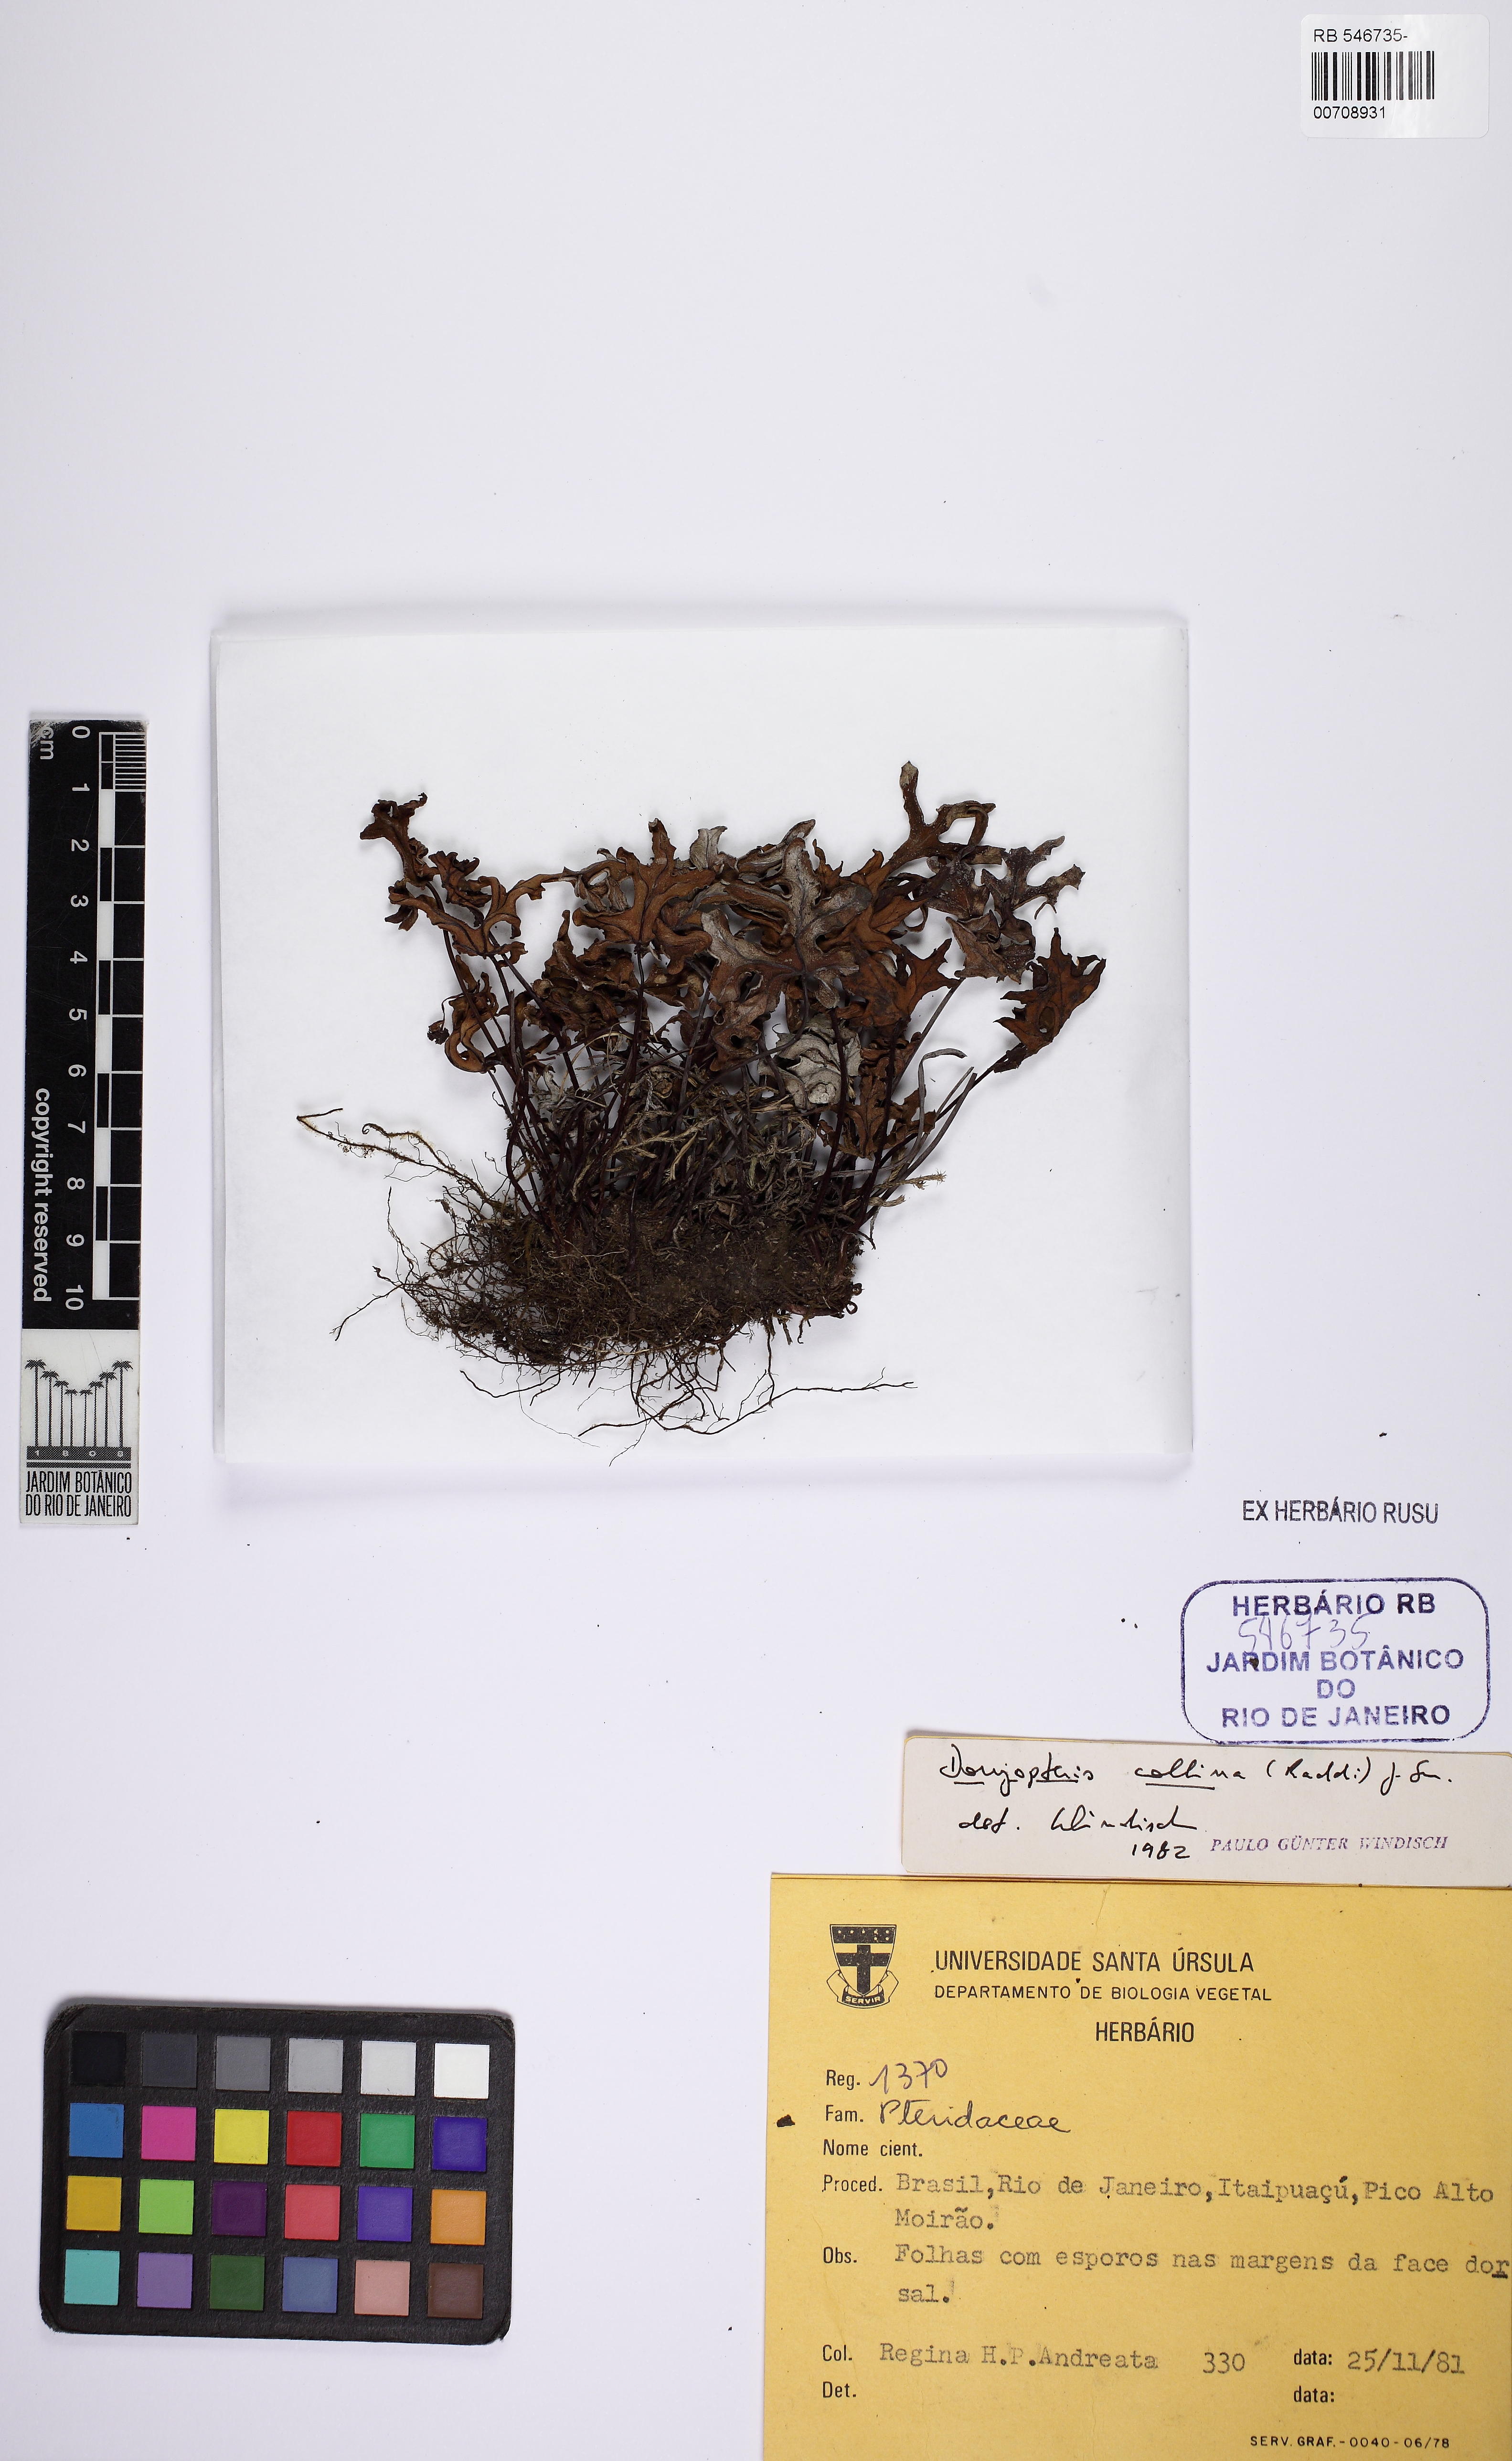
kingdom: Plantae
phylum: Tracheophyta
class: Polypodiopsida
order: Polypodiales
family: Pteridaceae
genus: Doryopteris
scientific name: Doryopteris collina
